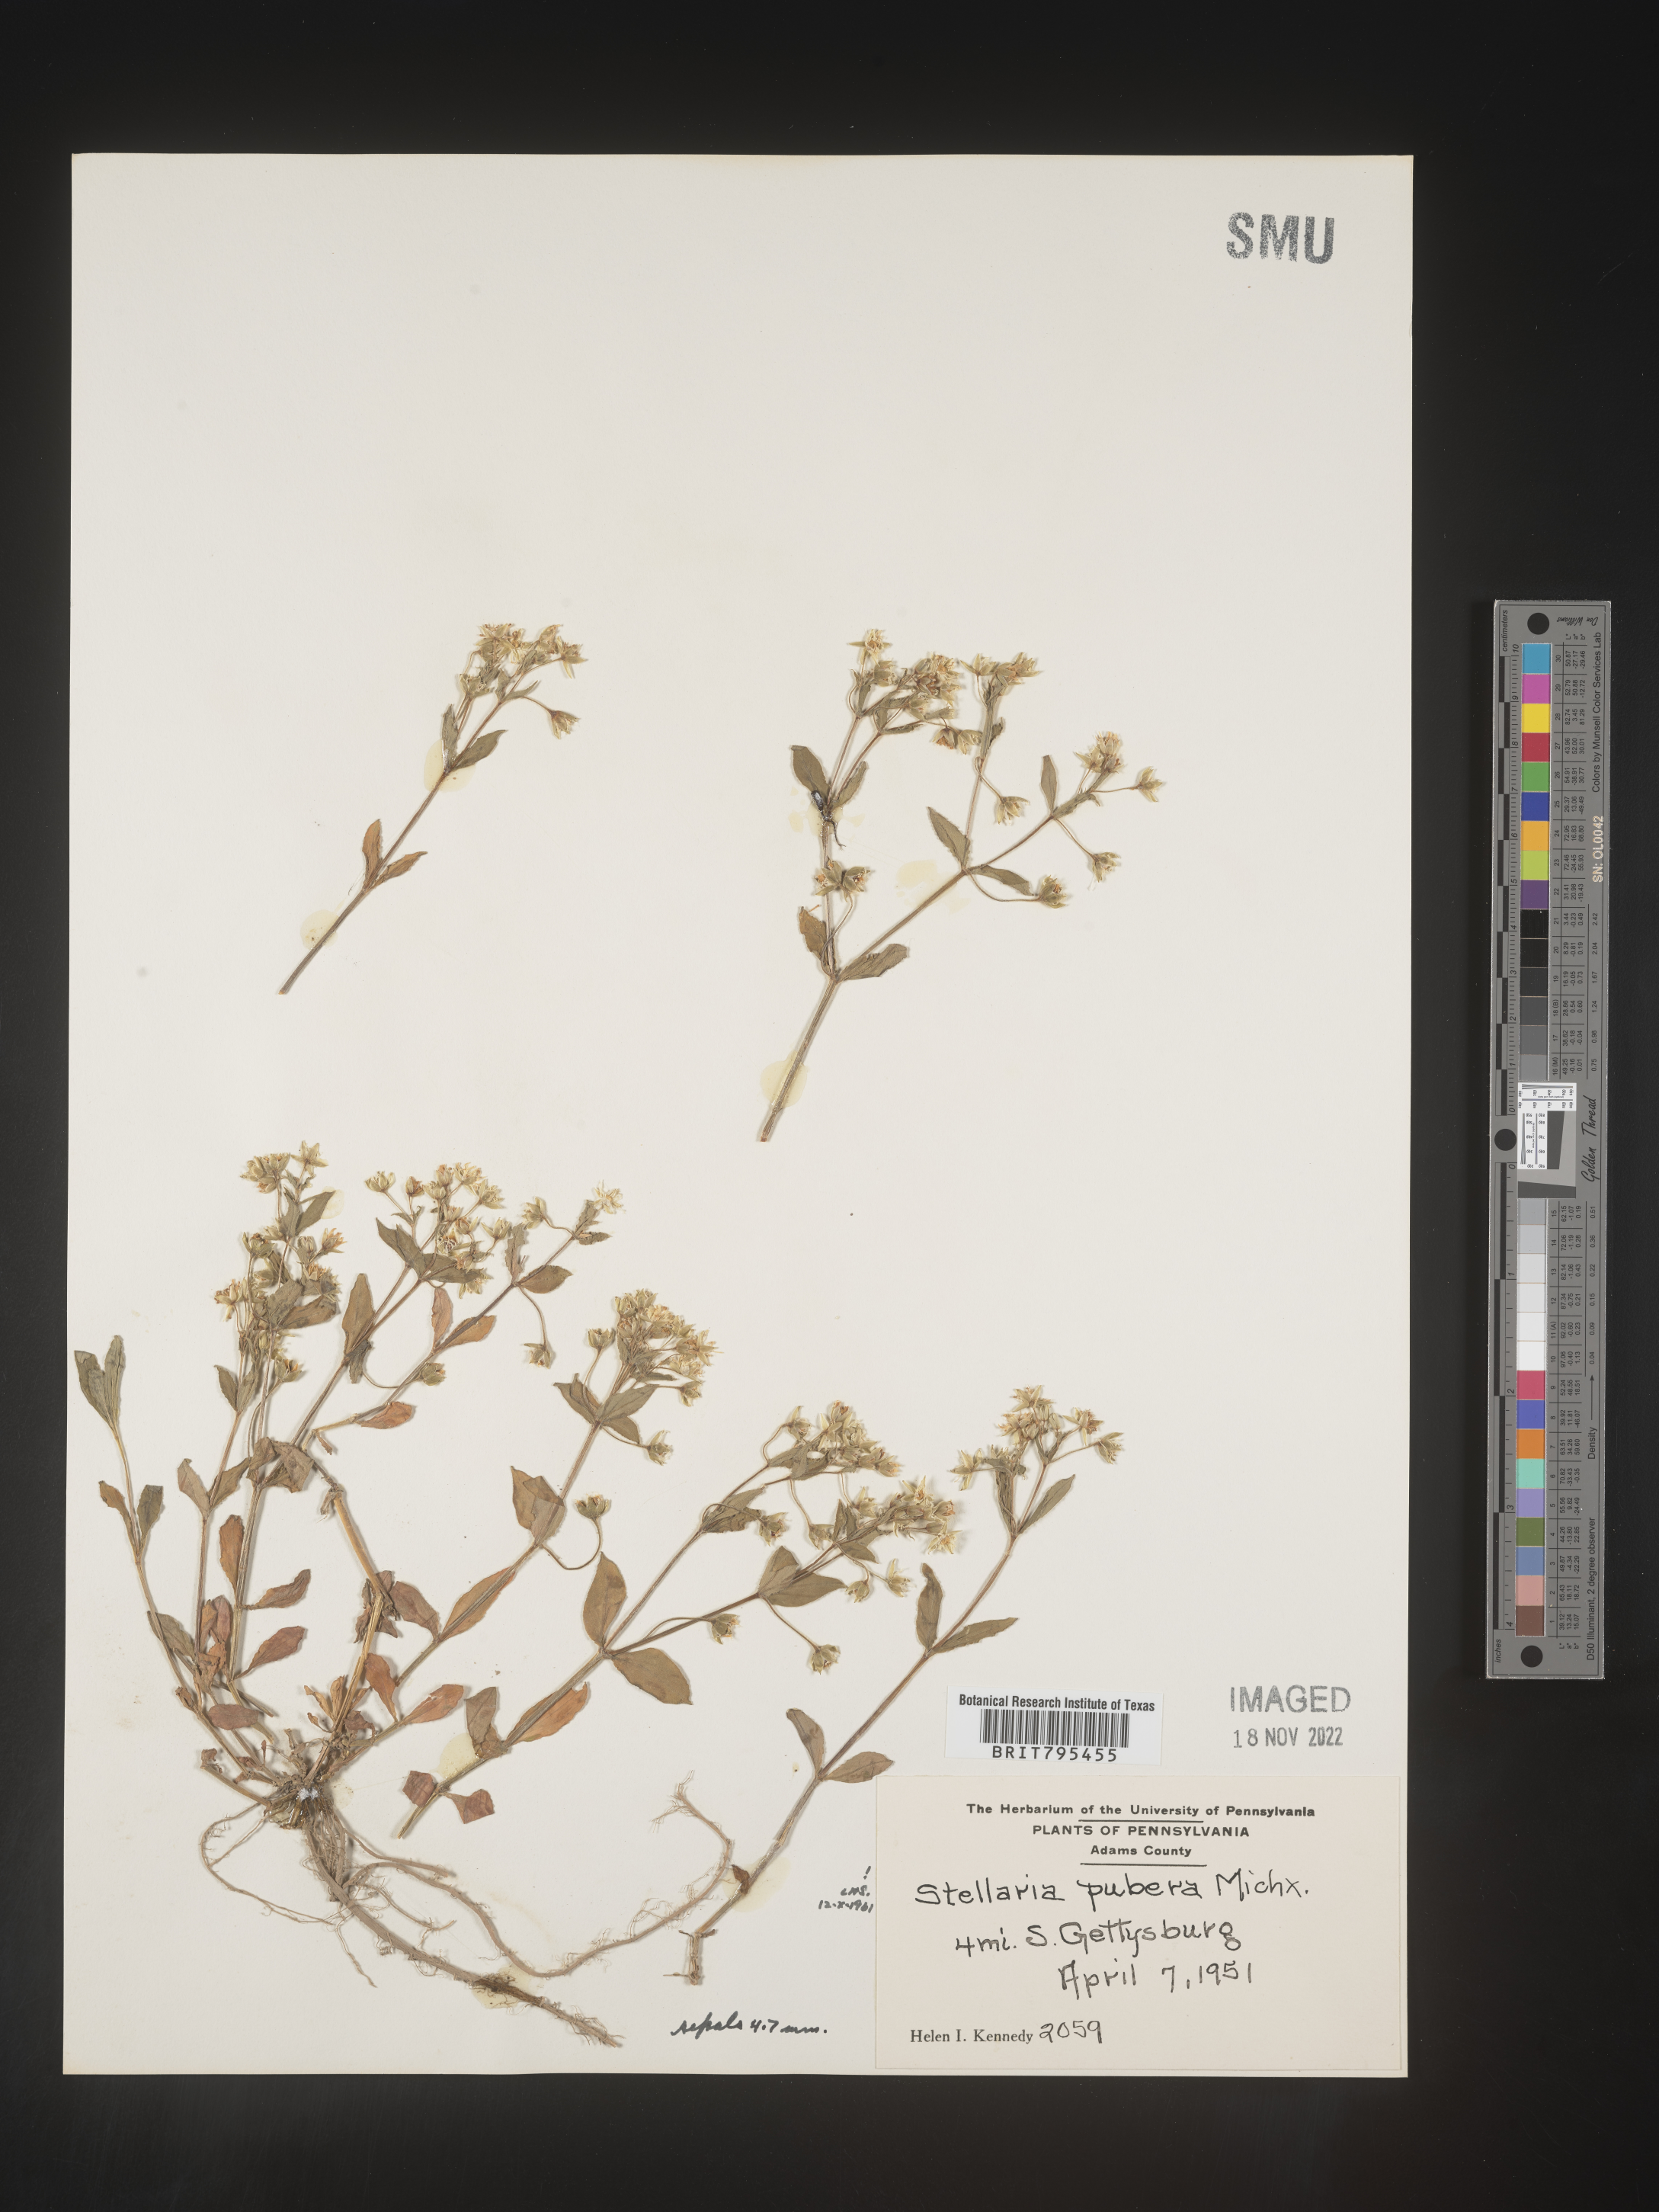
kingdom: Plantae
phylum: Tracheophyta
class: Magnoliopsida
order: Caryophyllales
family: Caryophyllaceae
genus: Stellaria
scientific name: Stellaria pubera
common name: Star chickweed
